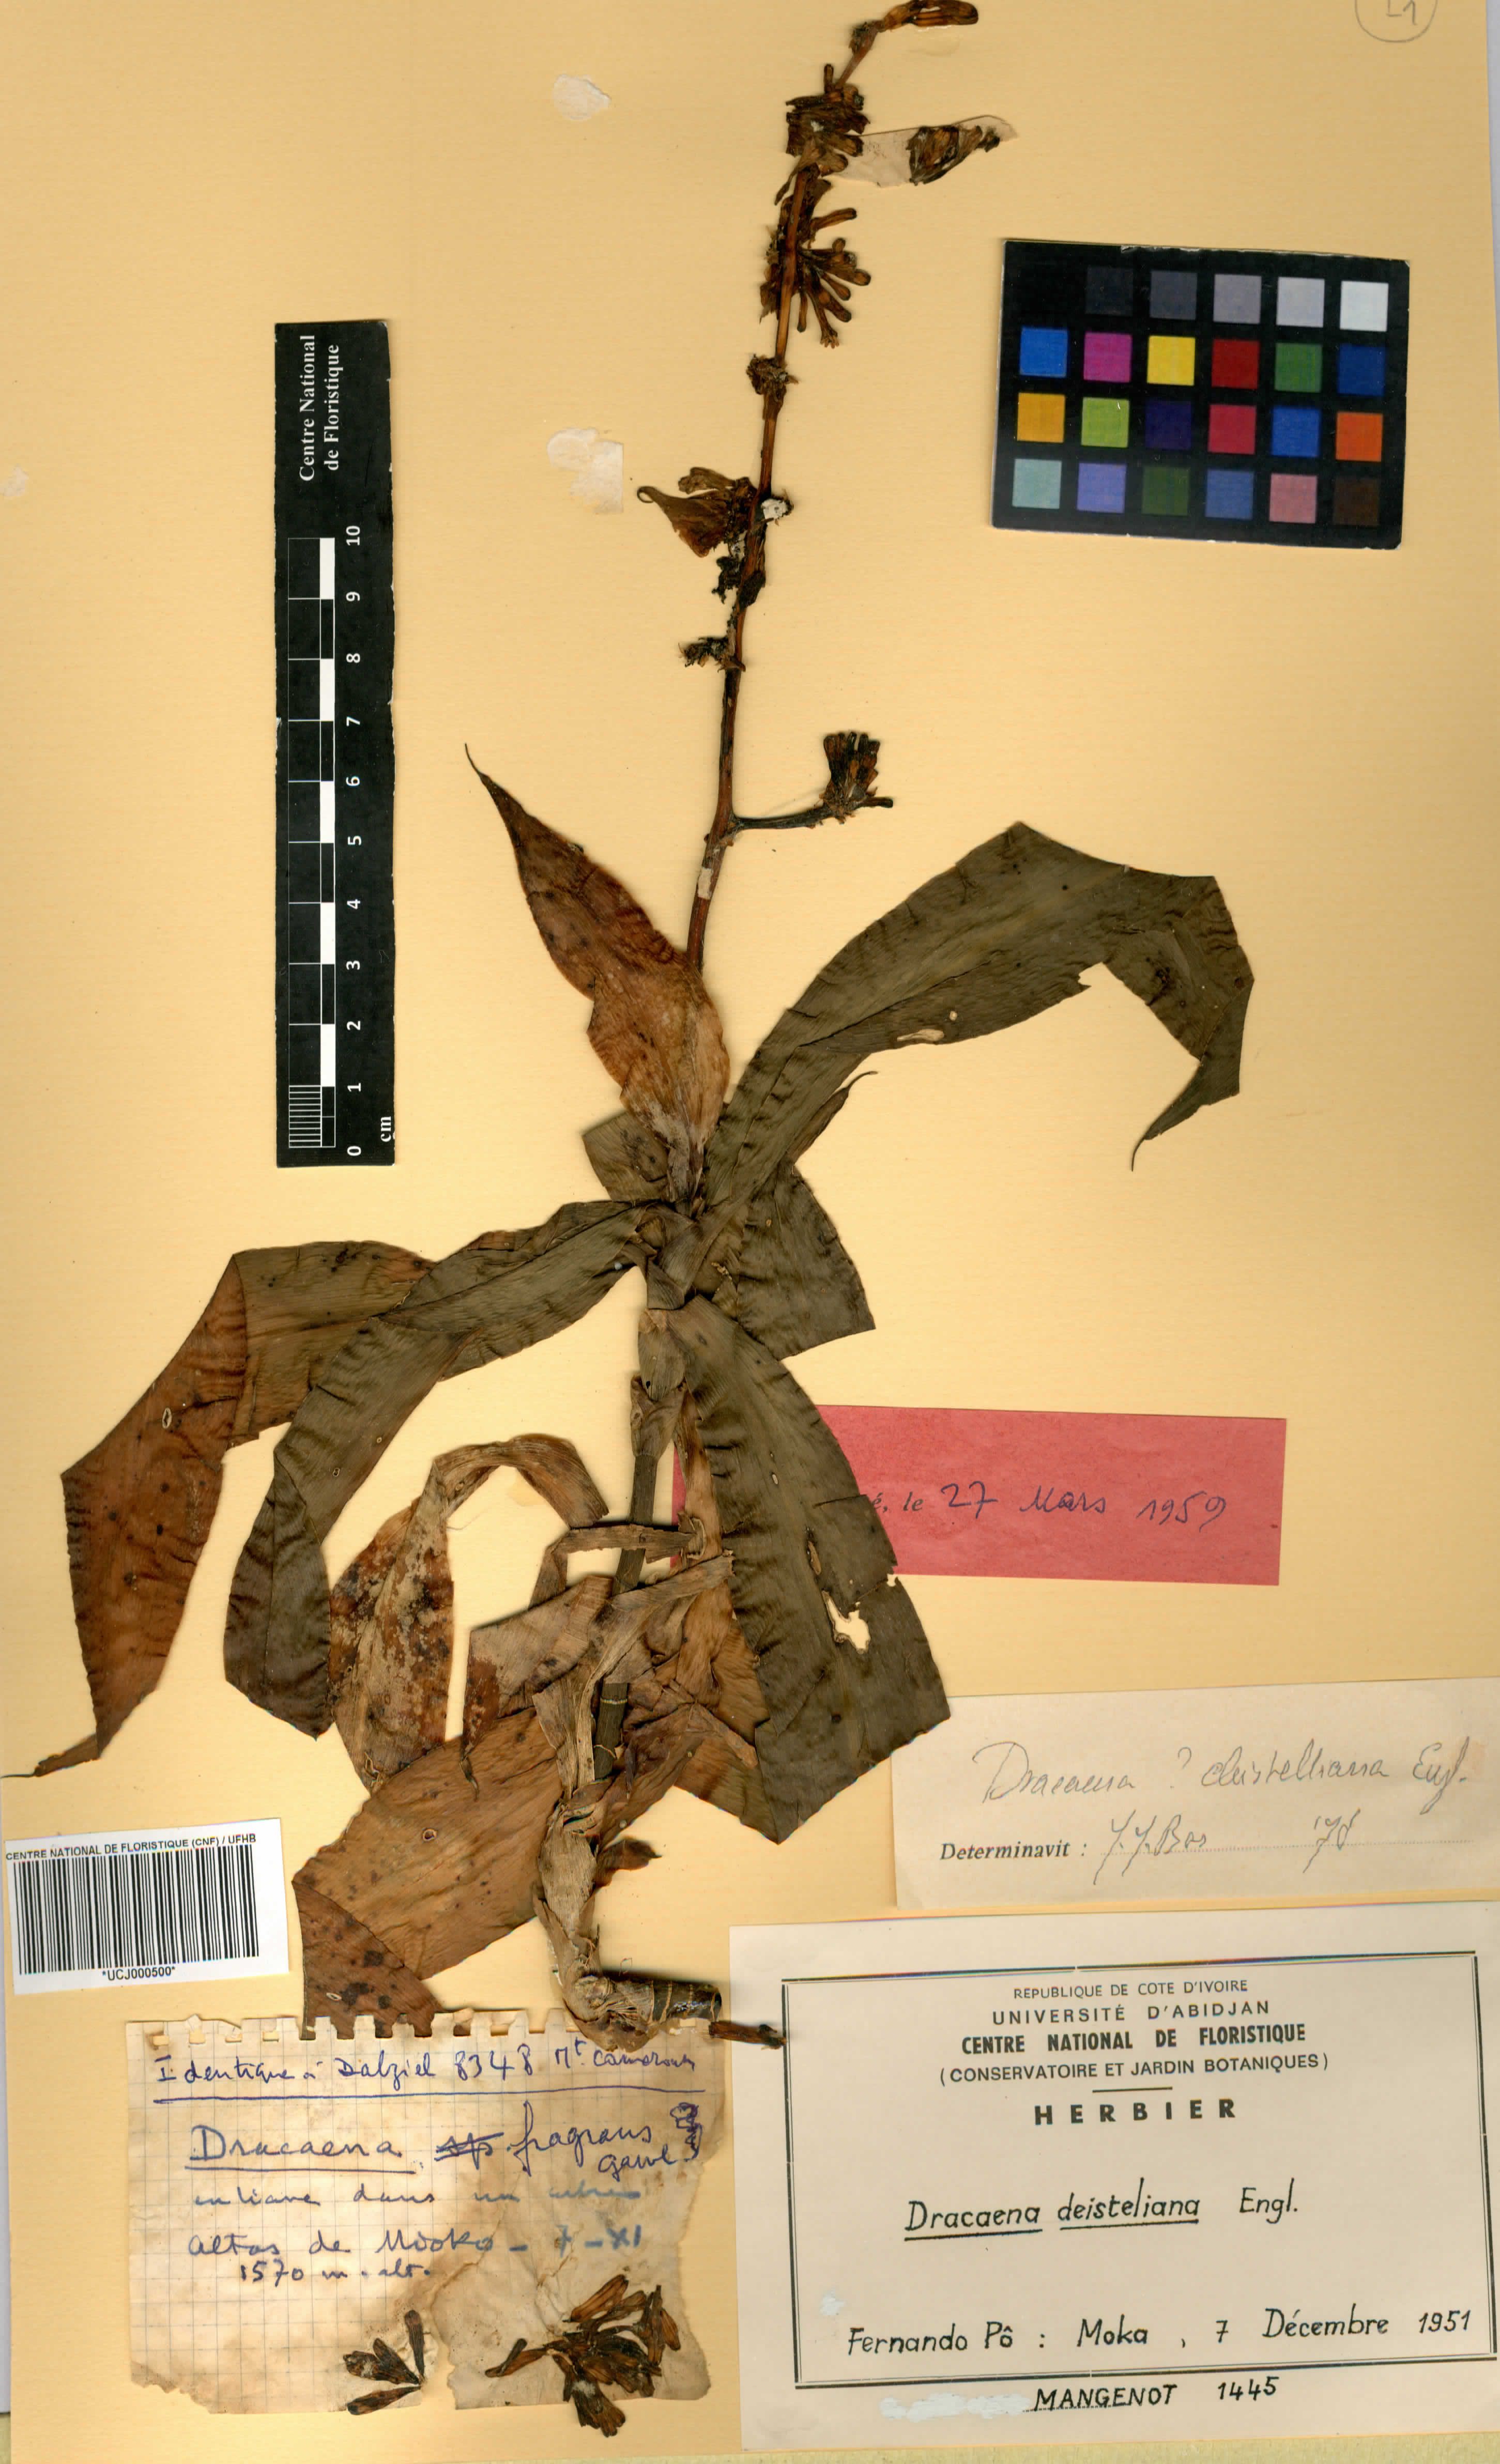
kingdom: Plantae
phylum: Tracheophyta
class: Liliopsida
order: Asparagales
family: Asparagaceae
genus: Dracaena
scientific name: Dracaena fragrans
